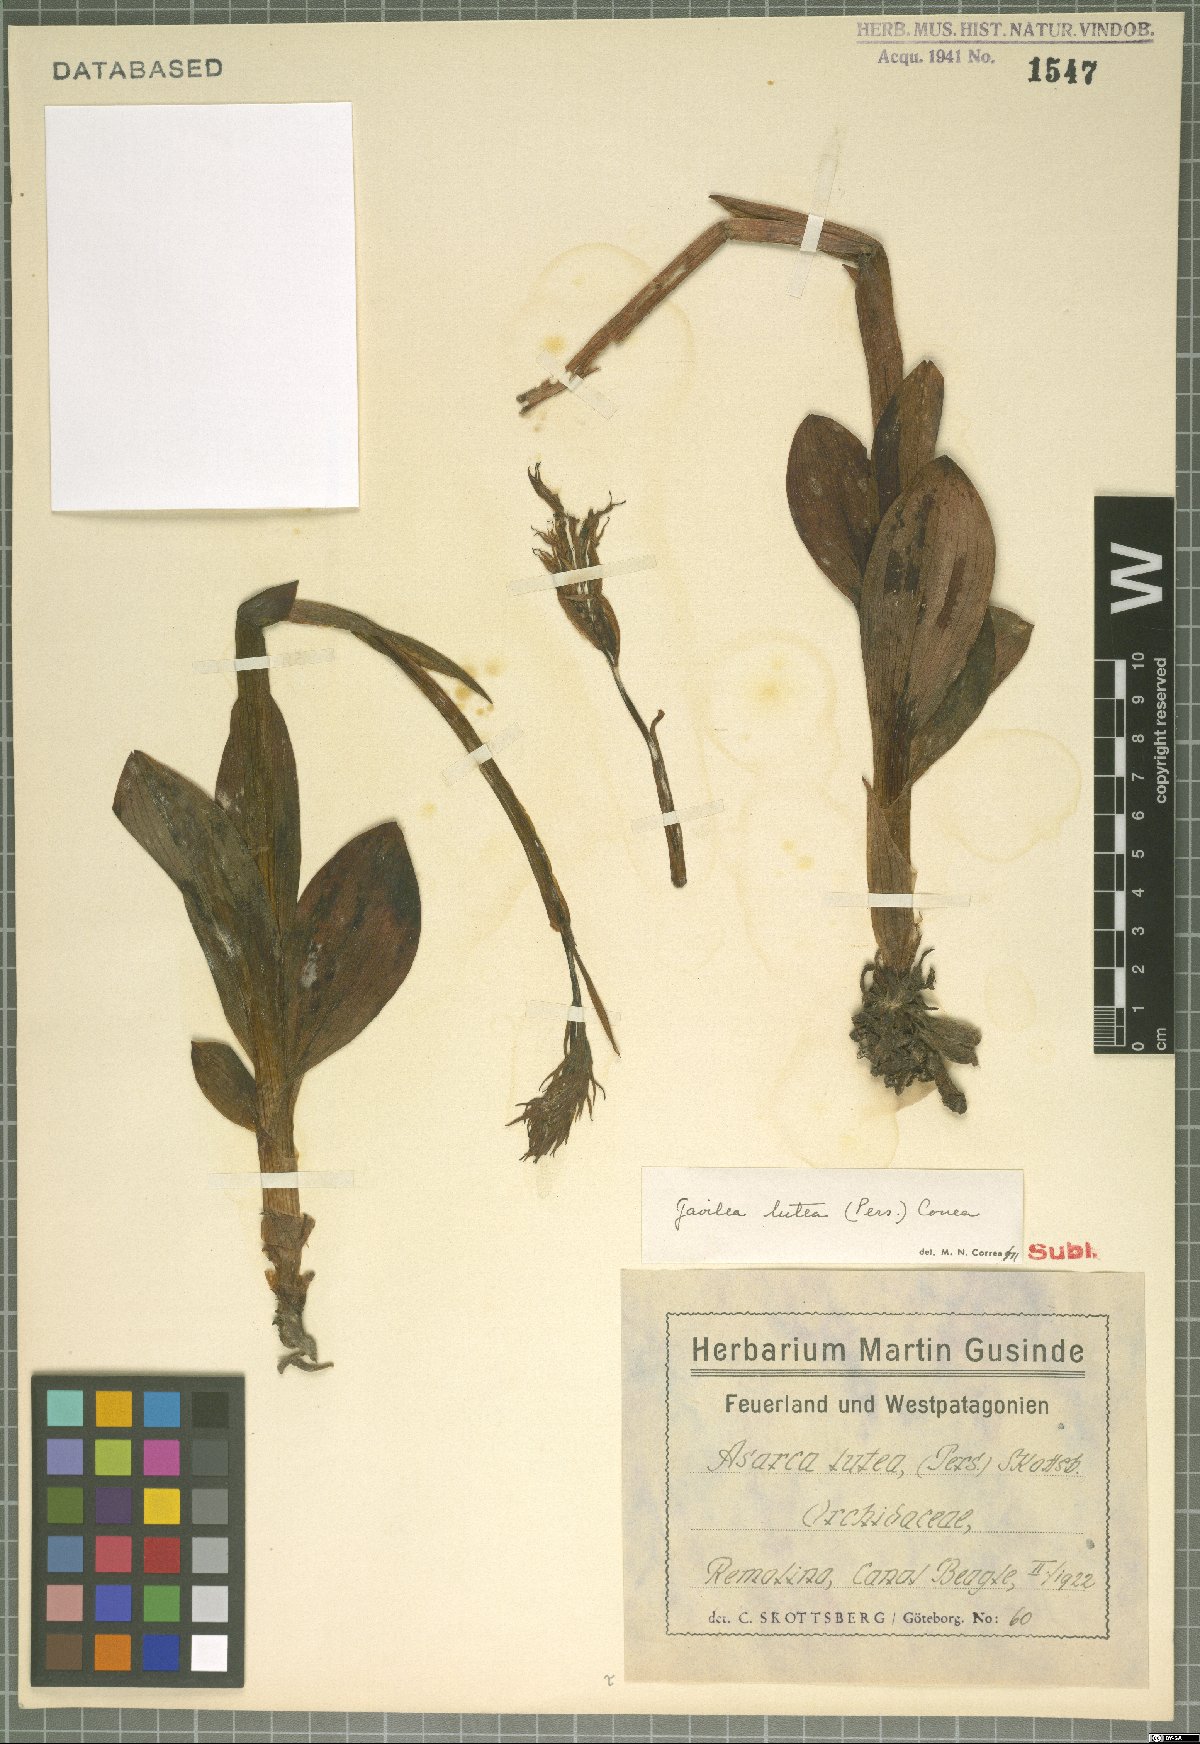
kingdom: Plantae
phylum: Tracheophyta
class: Liliopsida
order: Asparagales
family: Orchidaceae
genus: Gavilea
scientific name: Gavilea lutea
